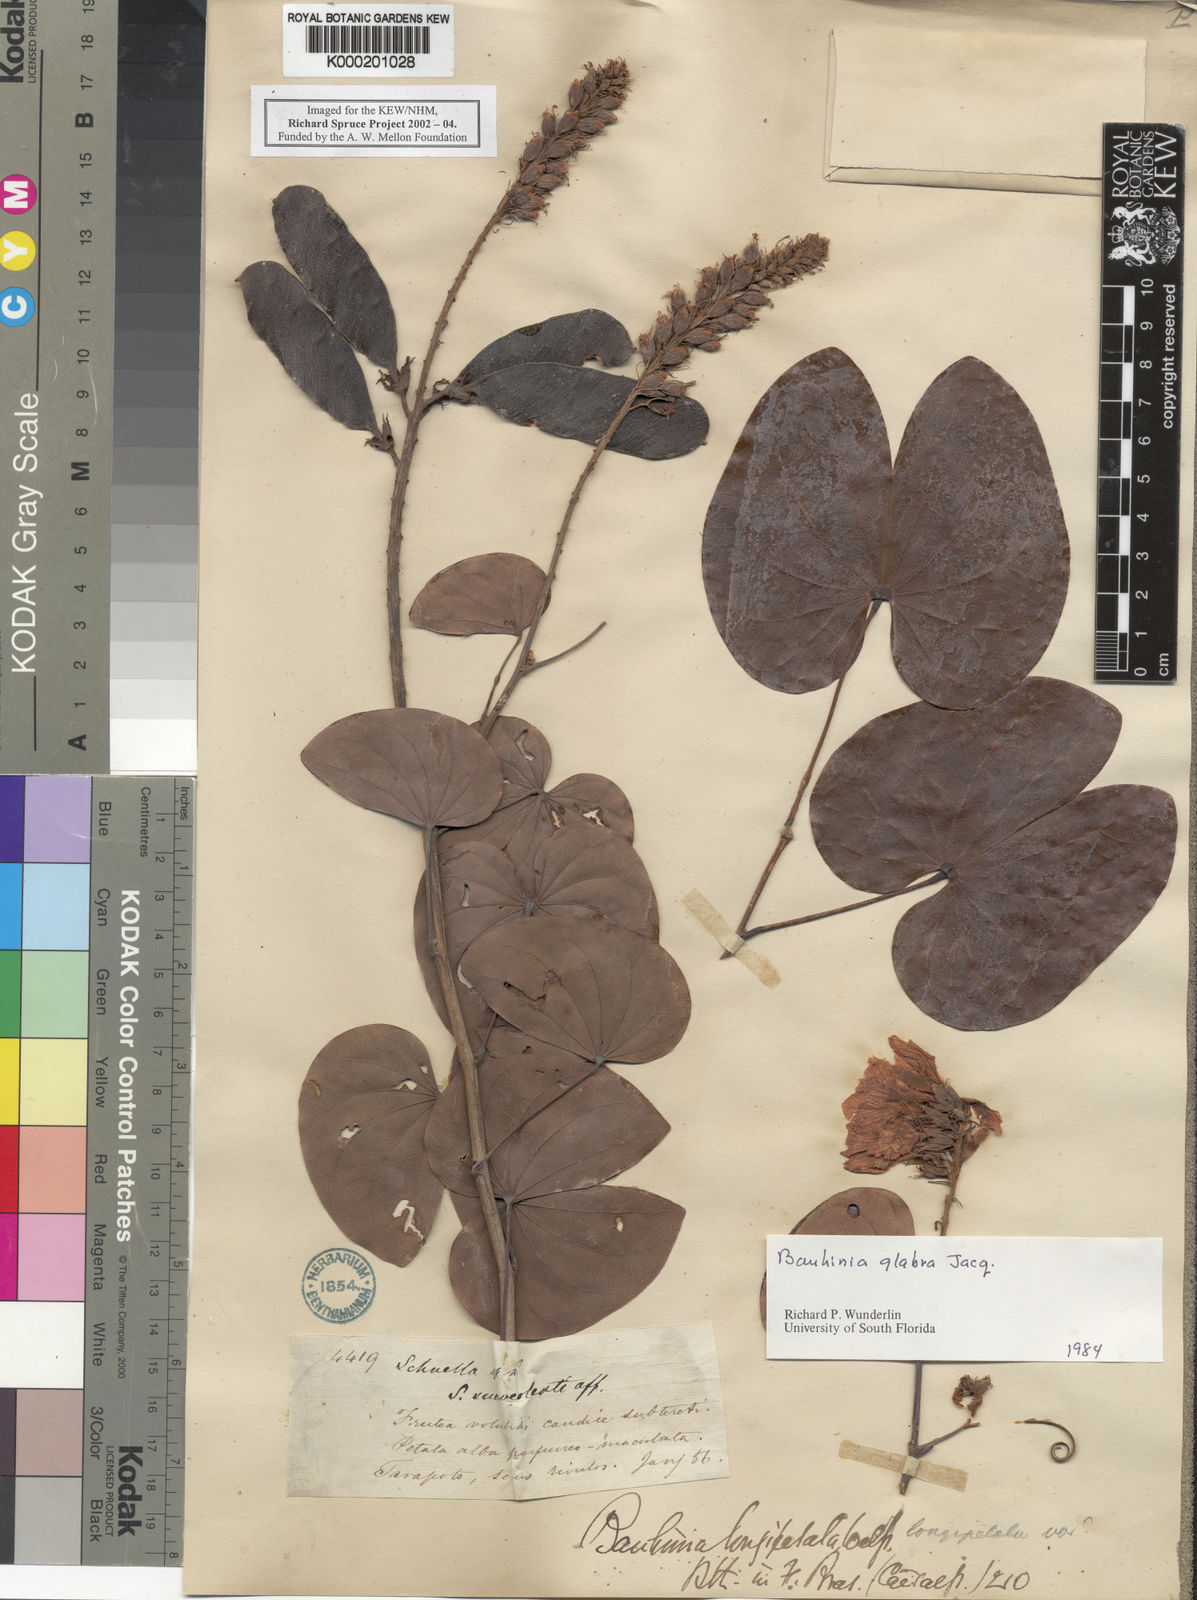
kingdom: Plantae
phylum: Tracheophyta
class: Magnoliopsida
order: Fabales
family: Fabaceae
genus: Schnella
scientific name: Schnella glabra
